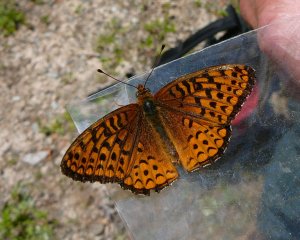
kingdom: Animalia
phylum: Arthropoda
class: Insecta
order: Lepidoptera
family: Nymphalidae
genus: Speyeria
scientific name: Speyeria atlantis
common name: Atlantis Fritillary
